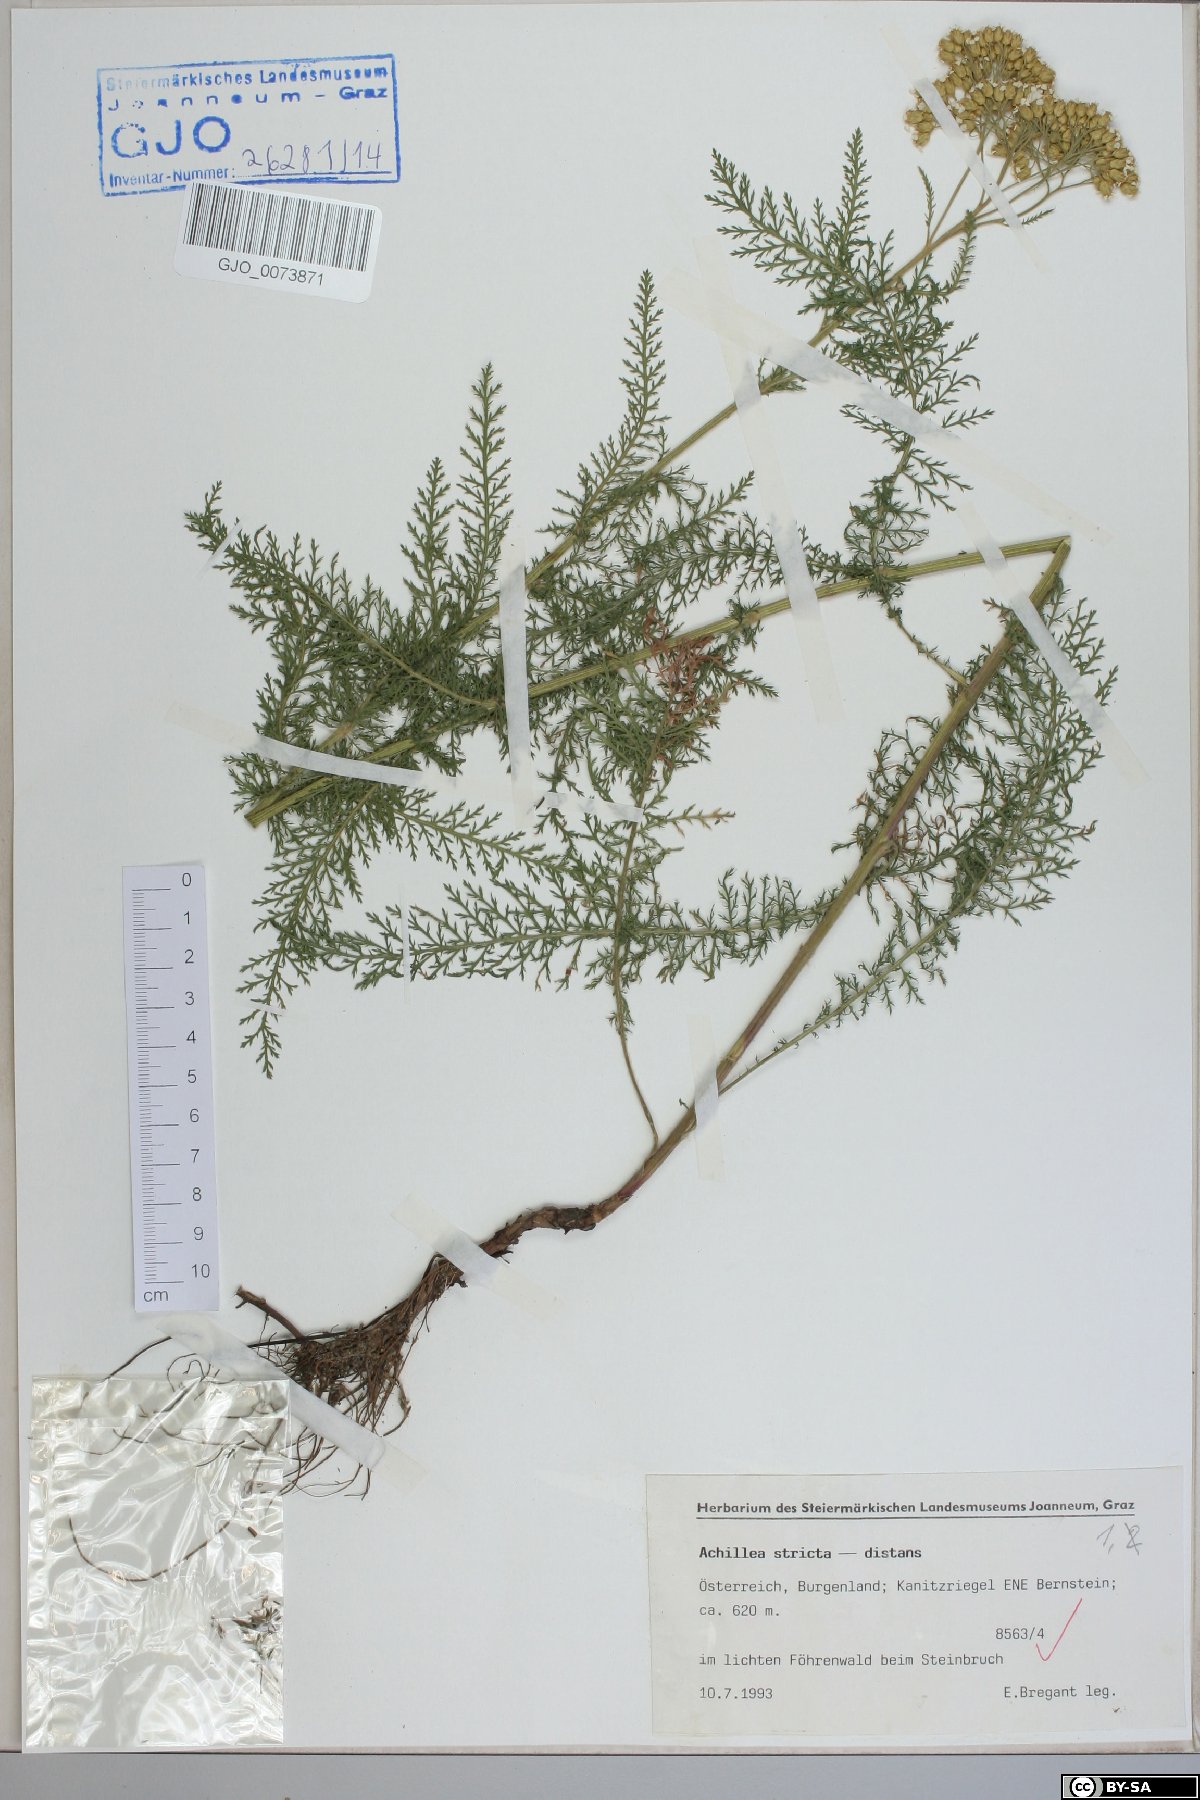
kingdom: Plantae
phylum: Tracheophyta
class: Magnoliopsida
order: Asterales
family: Asteraceae
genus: Achillea
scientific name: Achillea distans
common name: Tall yarrow
